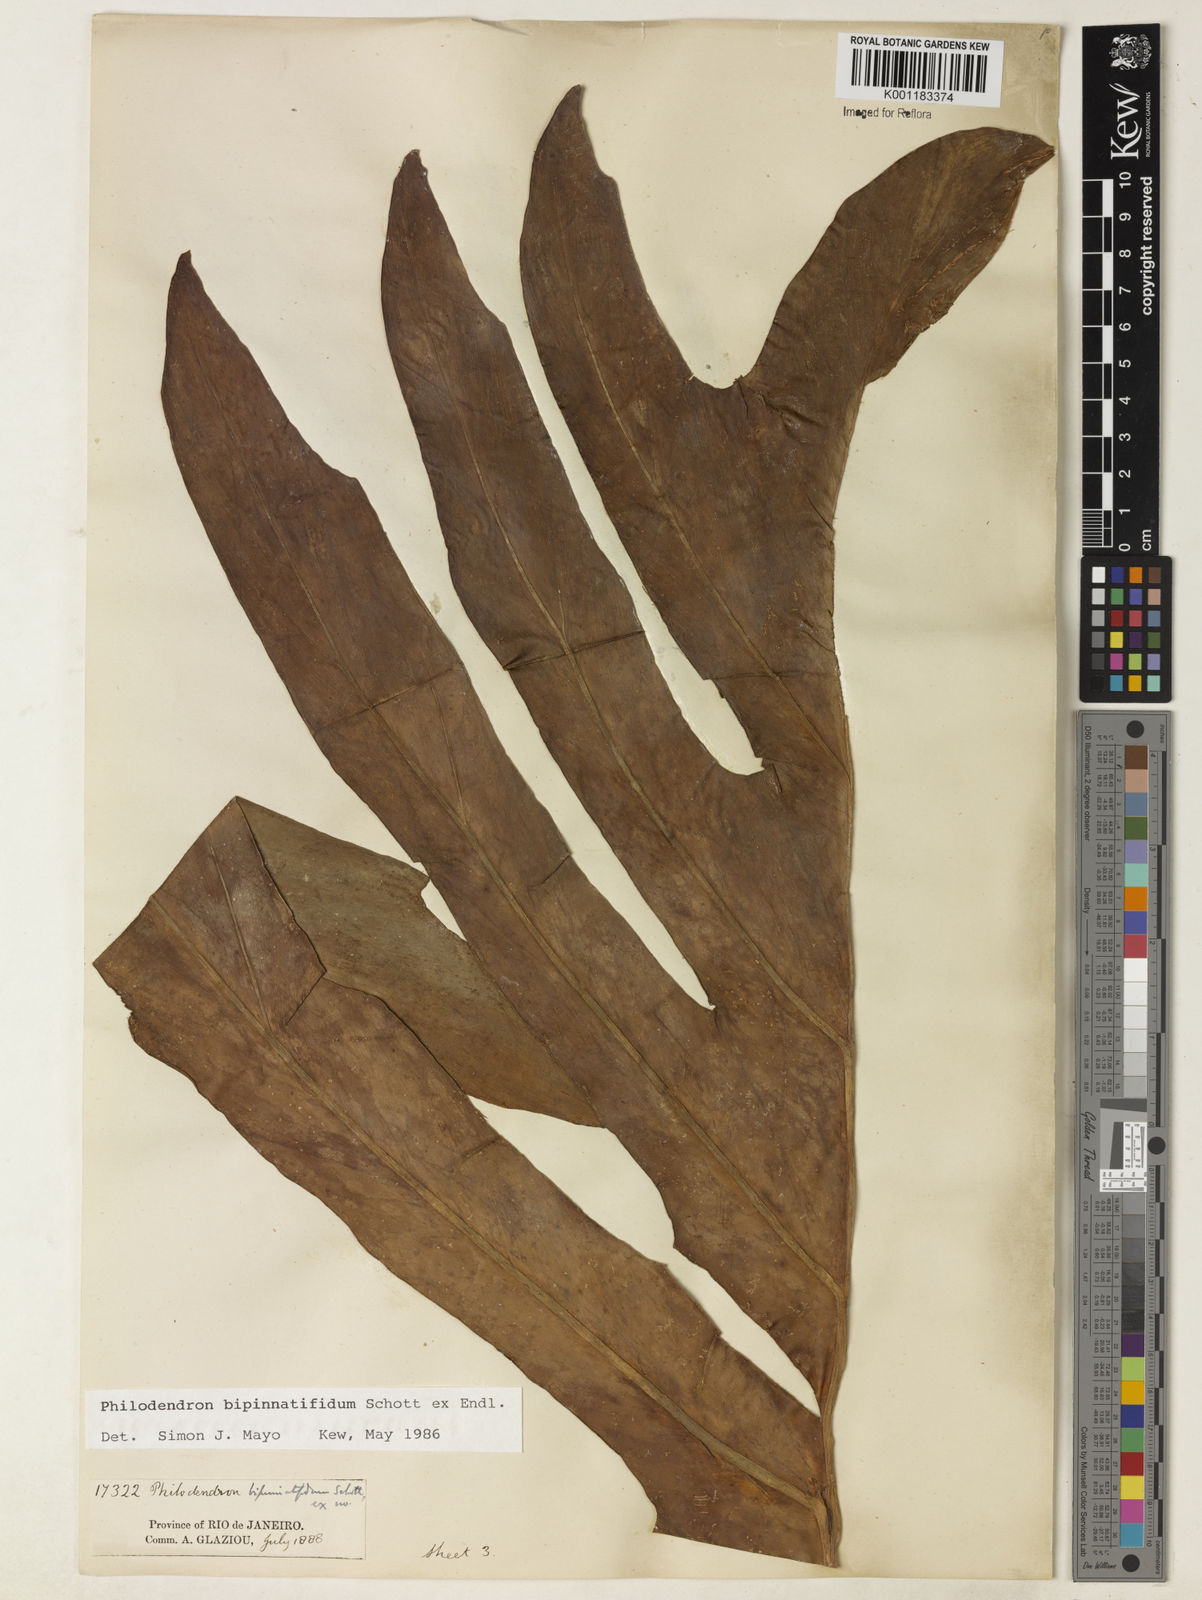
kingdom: Plantae
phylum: Tracheophyta
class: Liliopsida
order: Alismatales
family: Araceae
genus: Philodendron
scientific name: Philodendron
